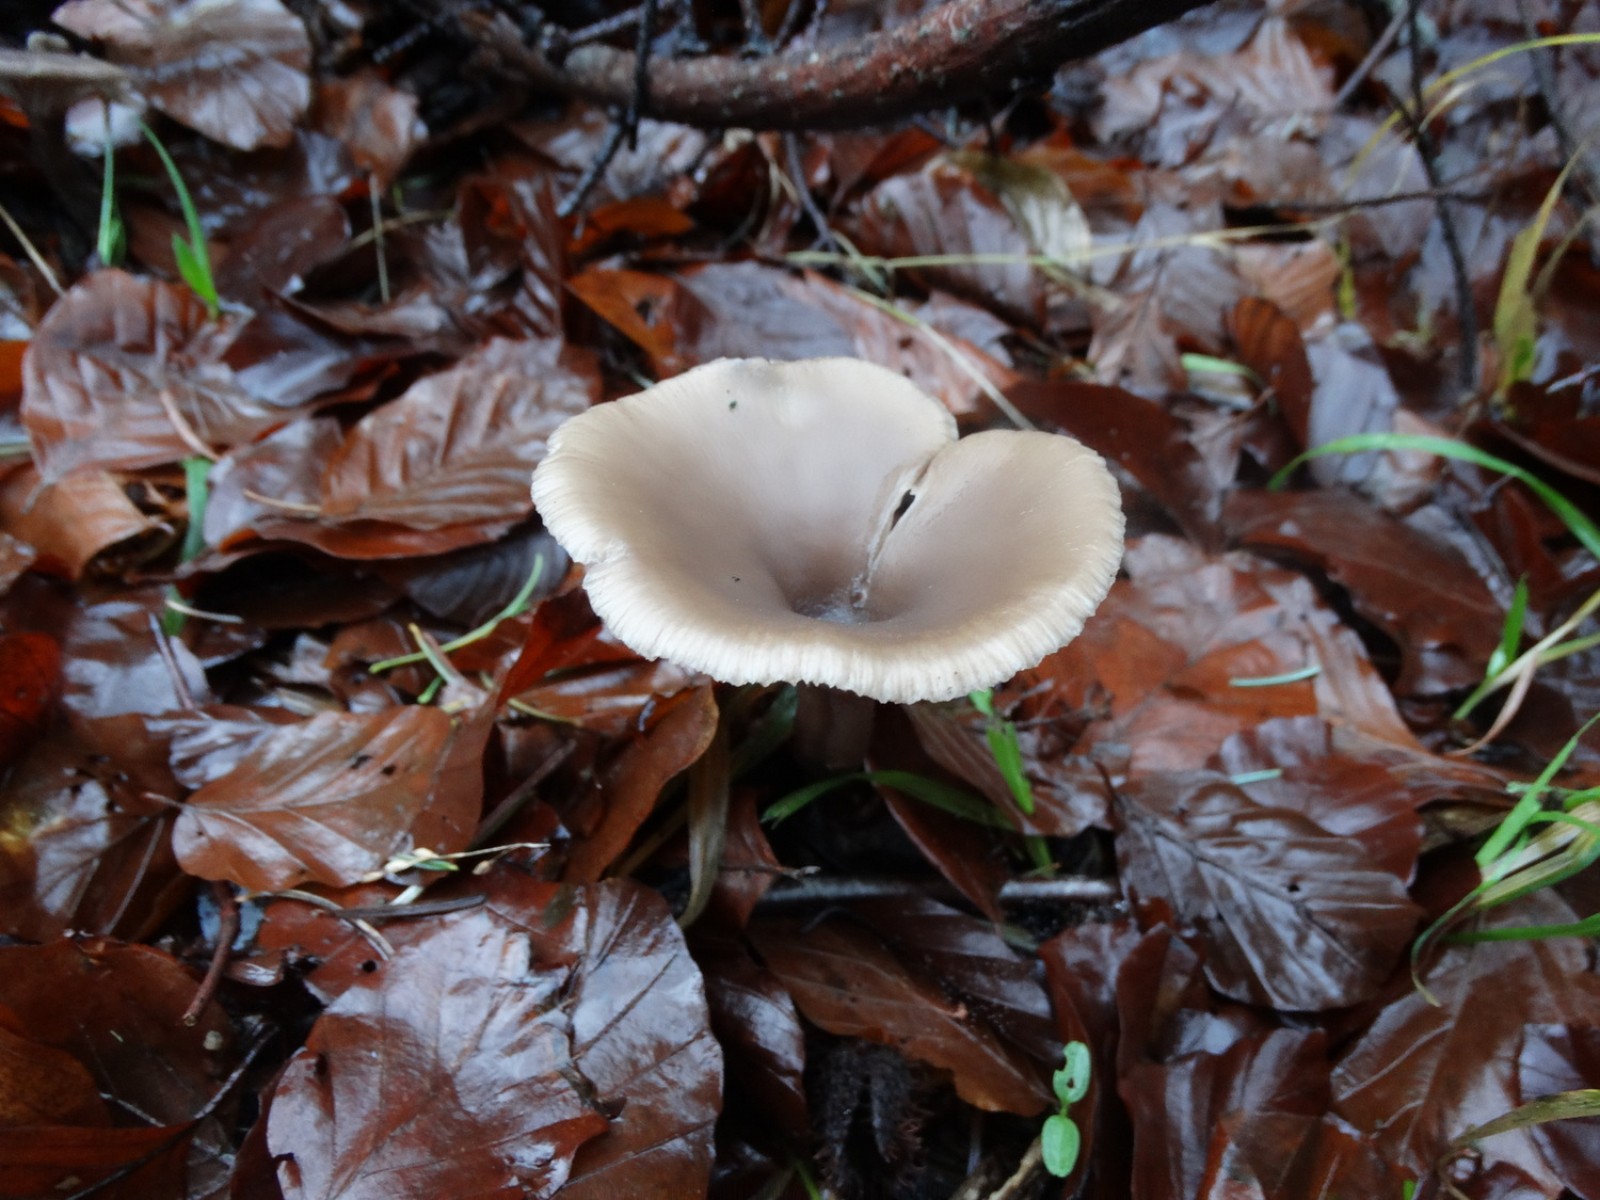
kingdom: Fungi
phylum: Basidiomycota
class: Agaricomycetes
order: Agaricales
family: Pseudoclitocybaceae
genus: Pseudoclitocybe
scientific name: Pseudoclitocybe cyathiformis
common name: almindelig bægertragthat
